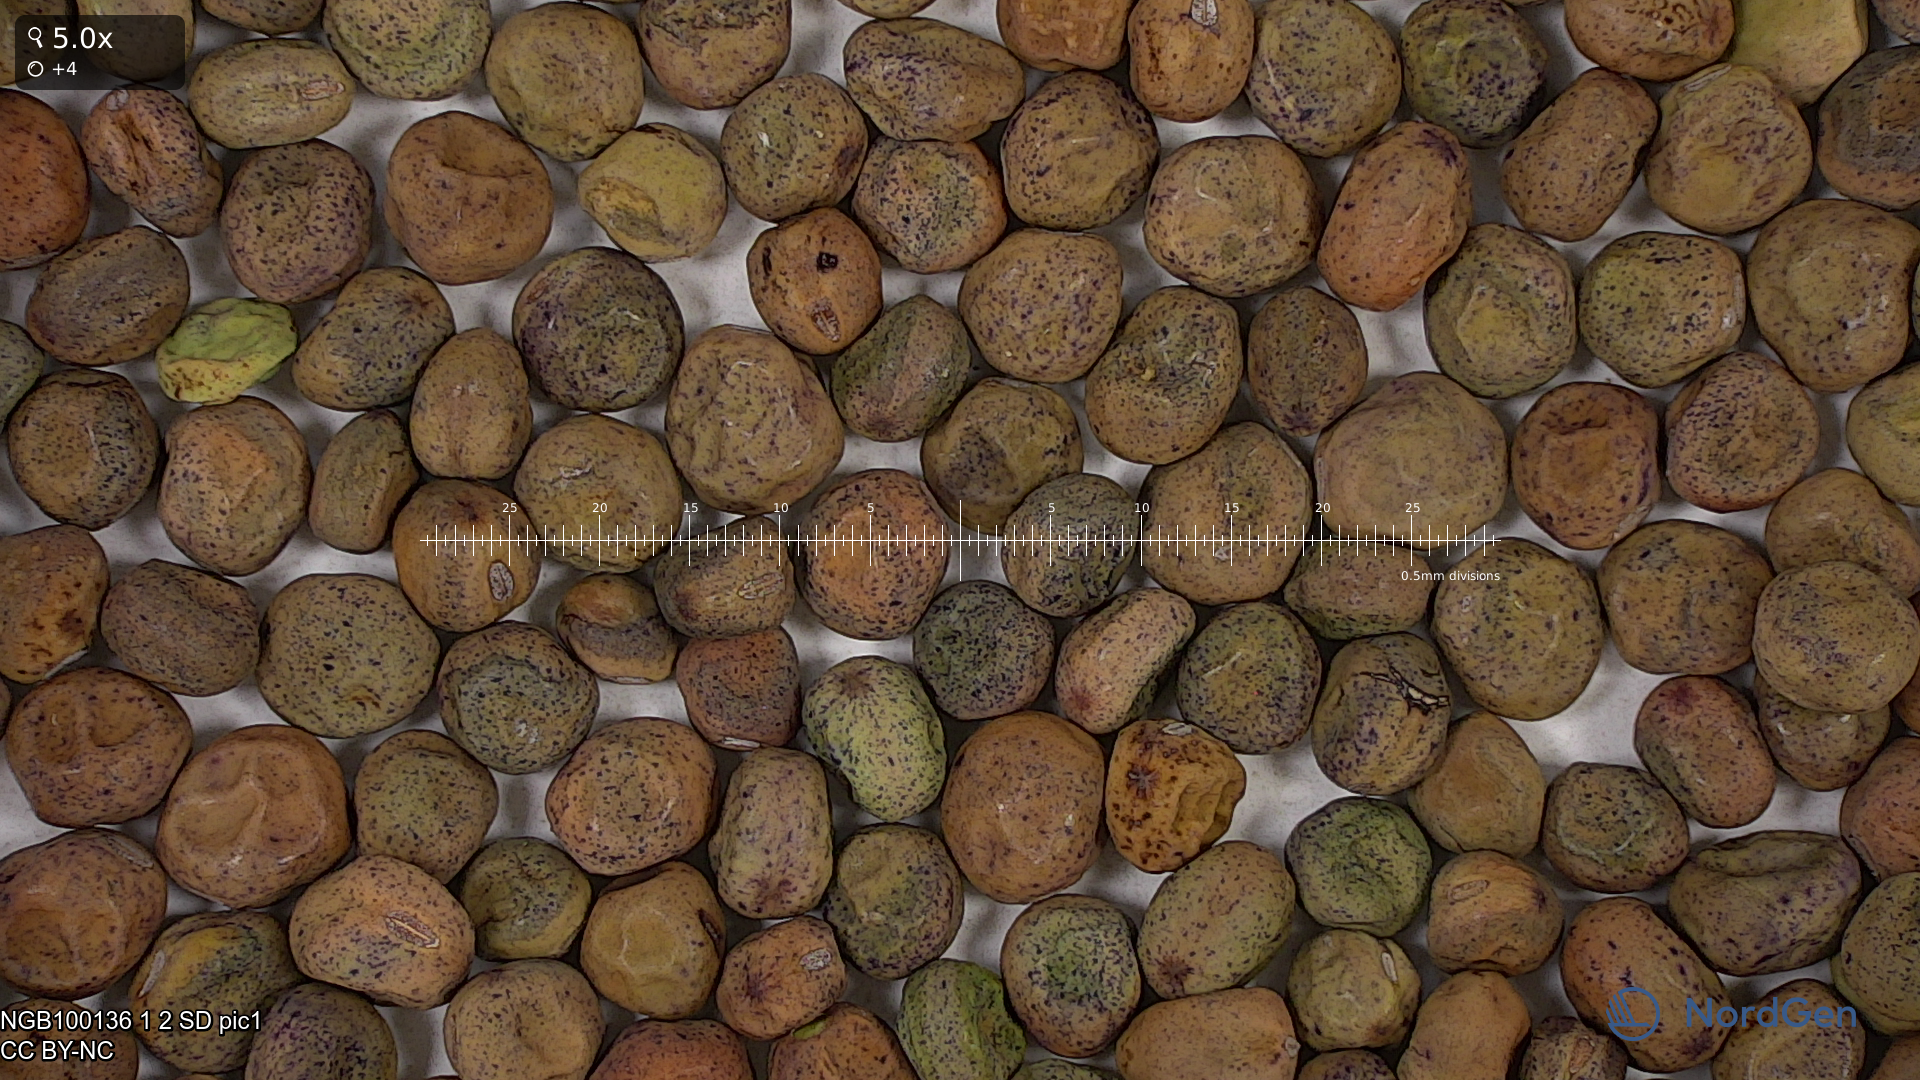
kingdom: Plantae
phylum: Tracheophyta
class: Magnoliopsida
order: Fabales
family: Fabaceae
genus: Lathyrus
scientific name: Lathyrus oleraceus
